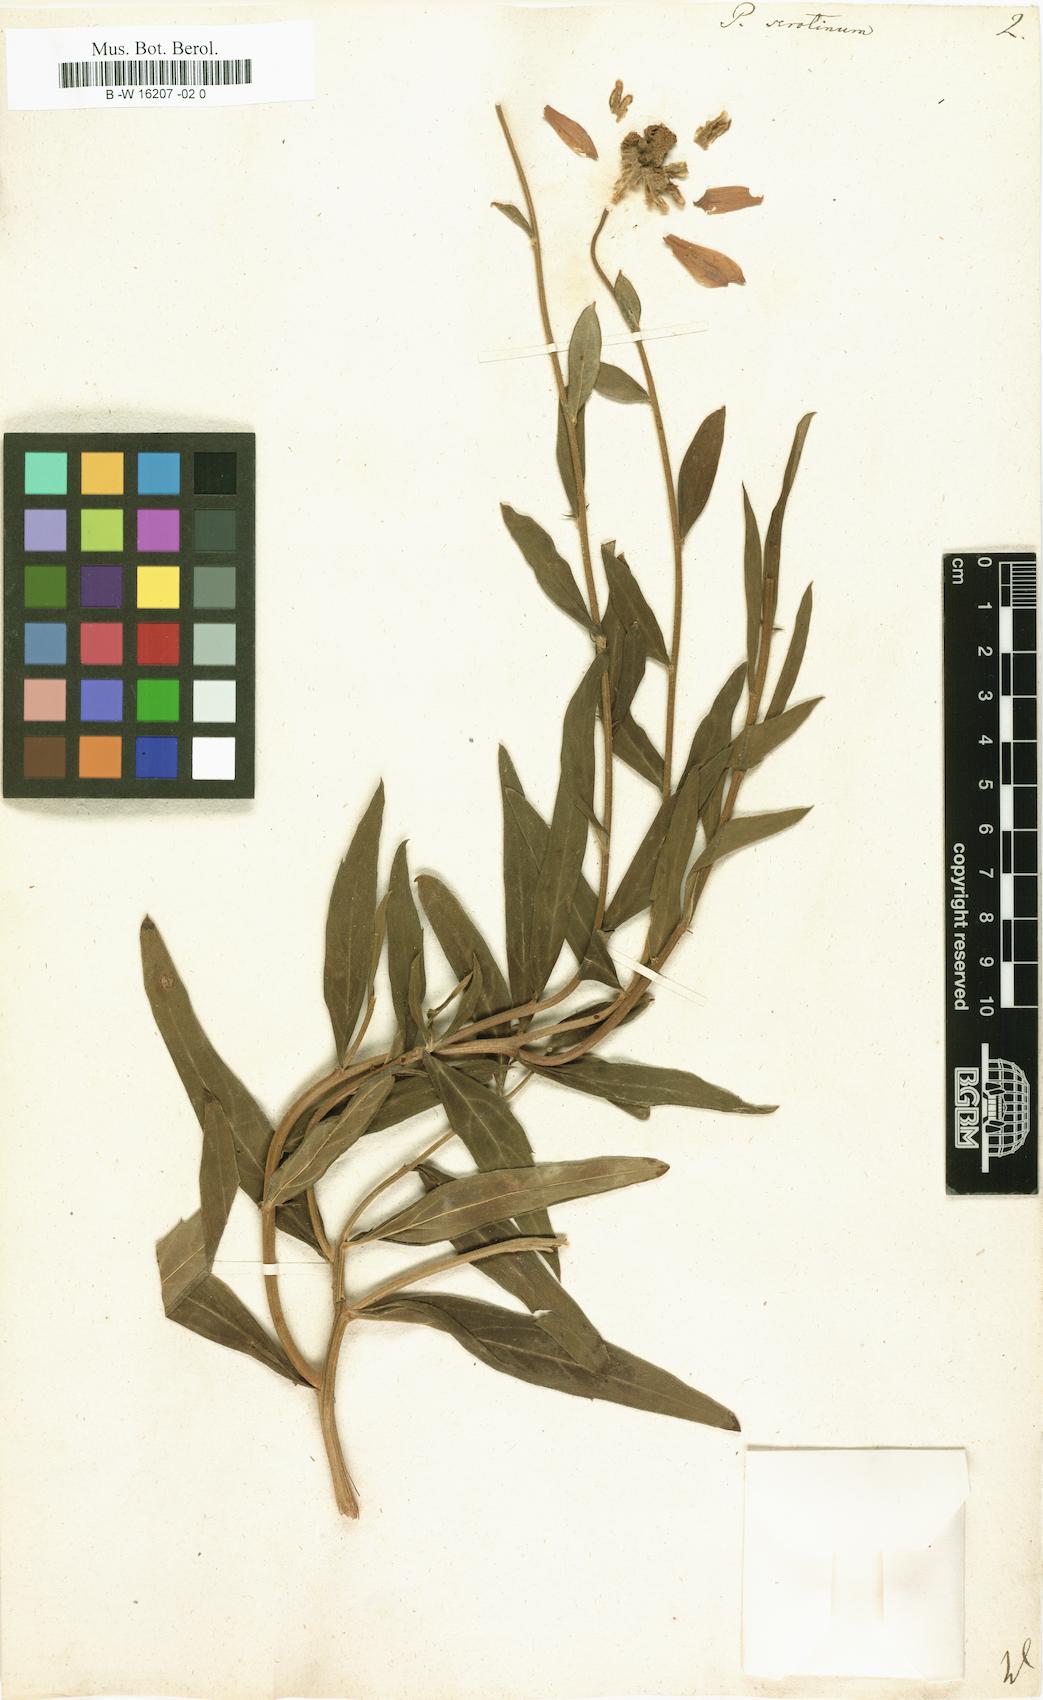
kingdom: Plantae
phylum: Tracheophyta
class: Magnoliopsida
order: Asterales
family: Asteraceae
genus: Tanacetum
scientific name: Tanacetum Pyrethrum serotinum
